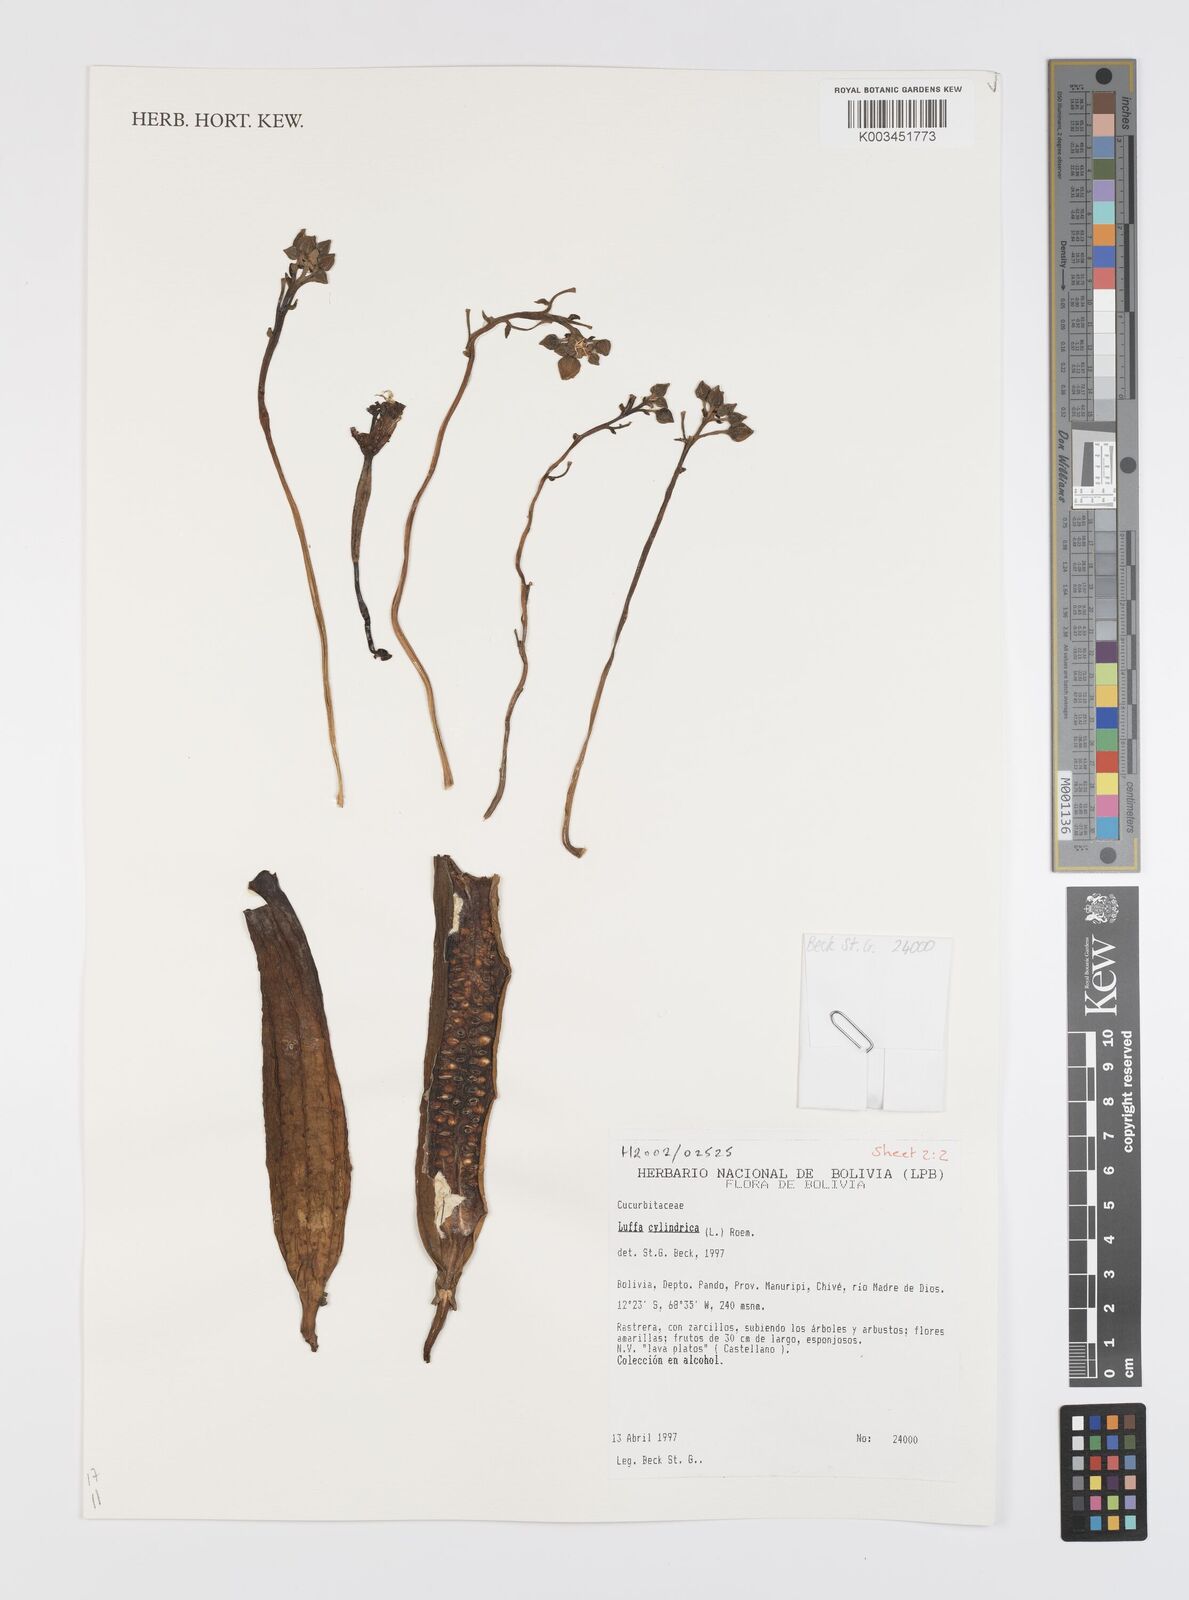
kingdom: Plantae
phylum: Tracheophyta
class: Magnoliopsida
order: Cucurbitales
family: Cucurbitaceae
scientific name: Cucurbitaceae
